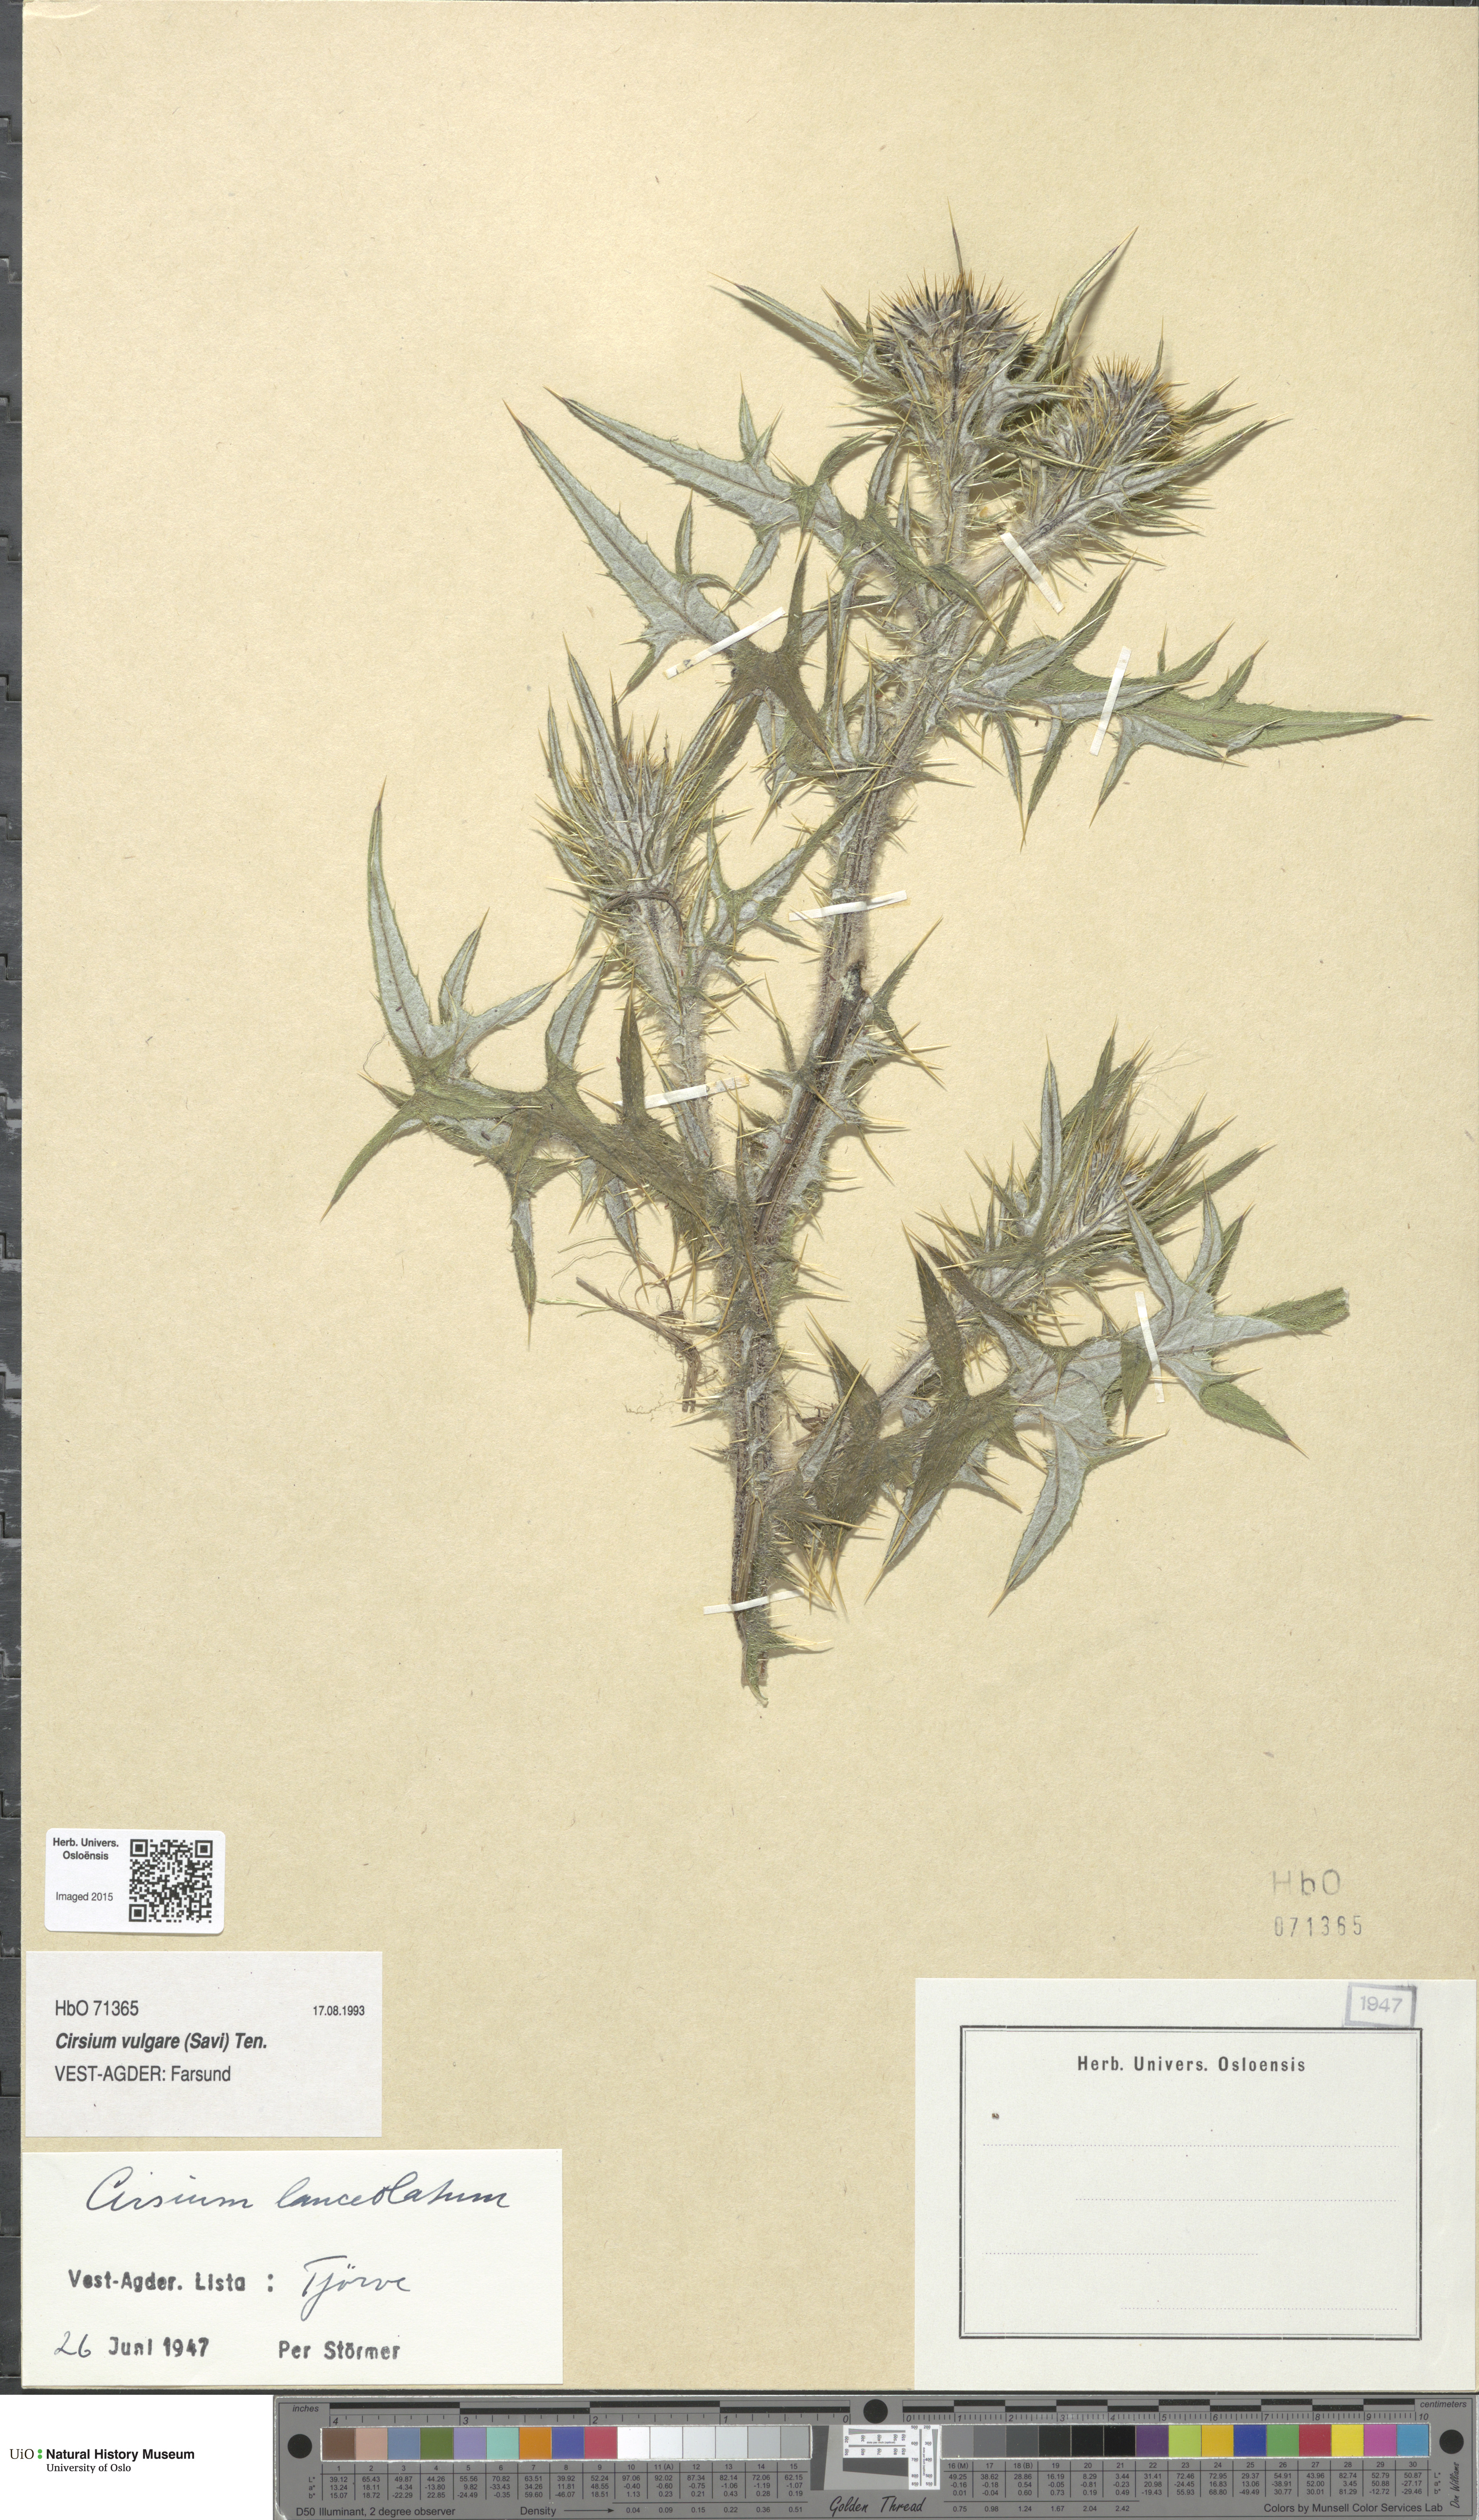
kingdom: Plantae
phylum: Tracheophyta
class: Magnoliopsida
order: Asterales
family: Asteraceae
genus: Cirsium
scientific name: Cirsium vulgare
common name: Bull thistle
